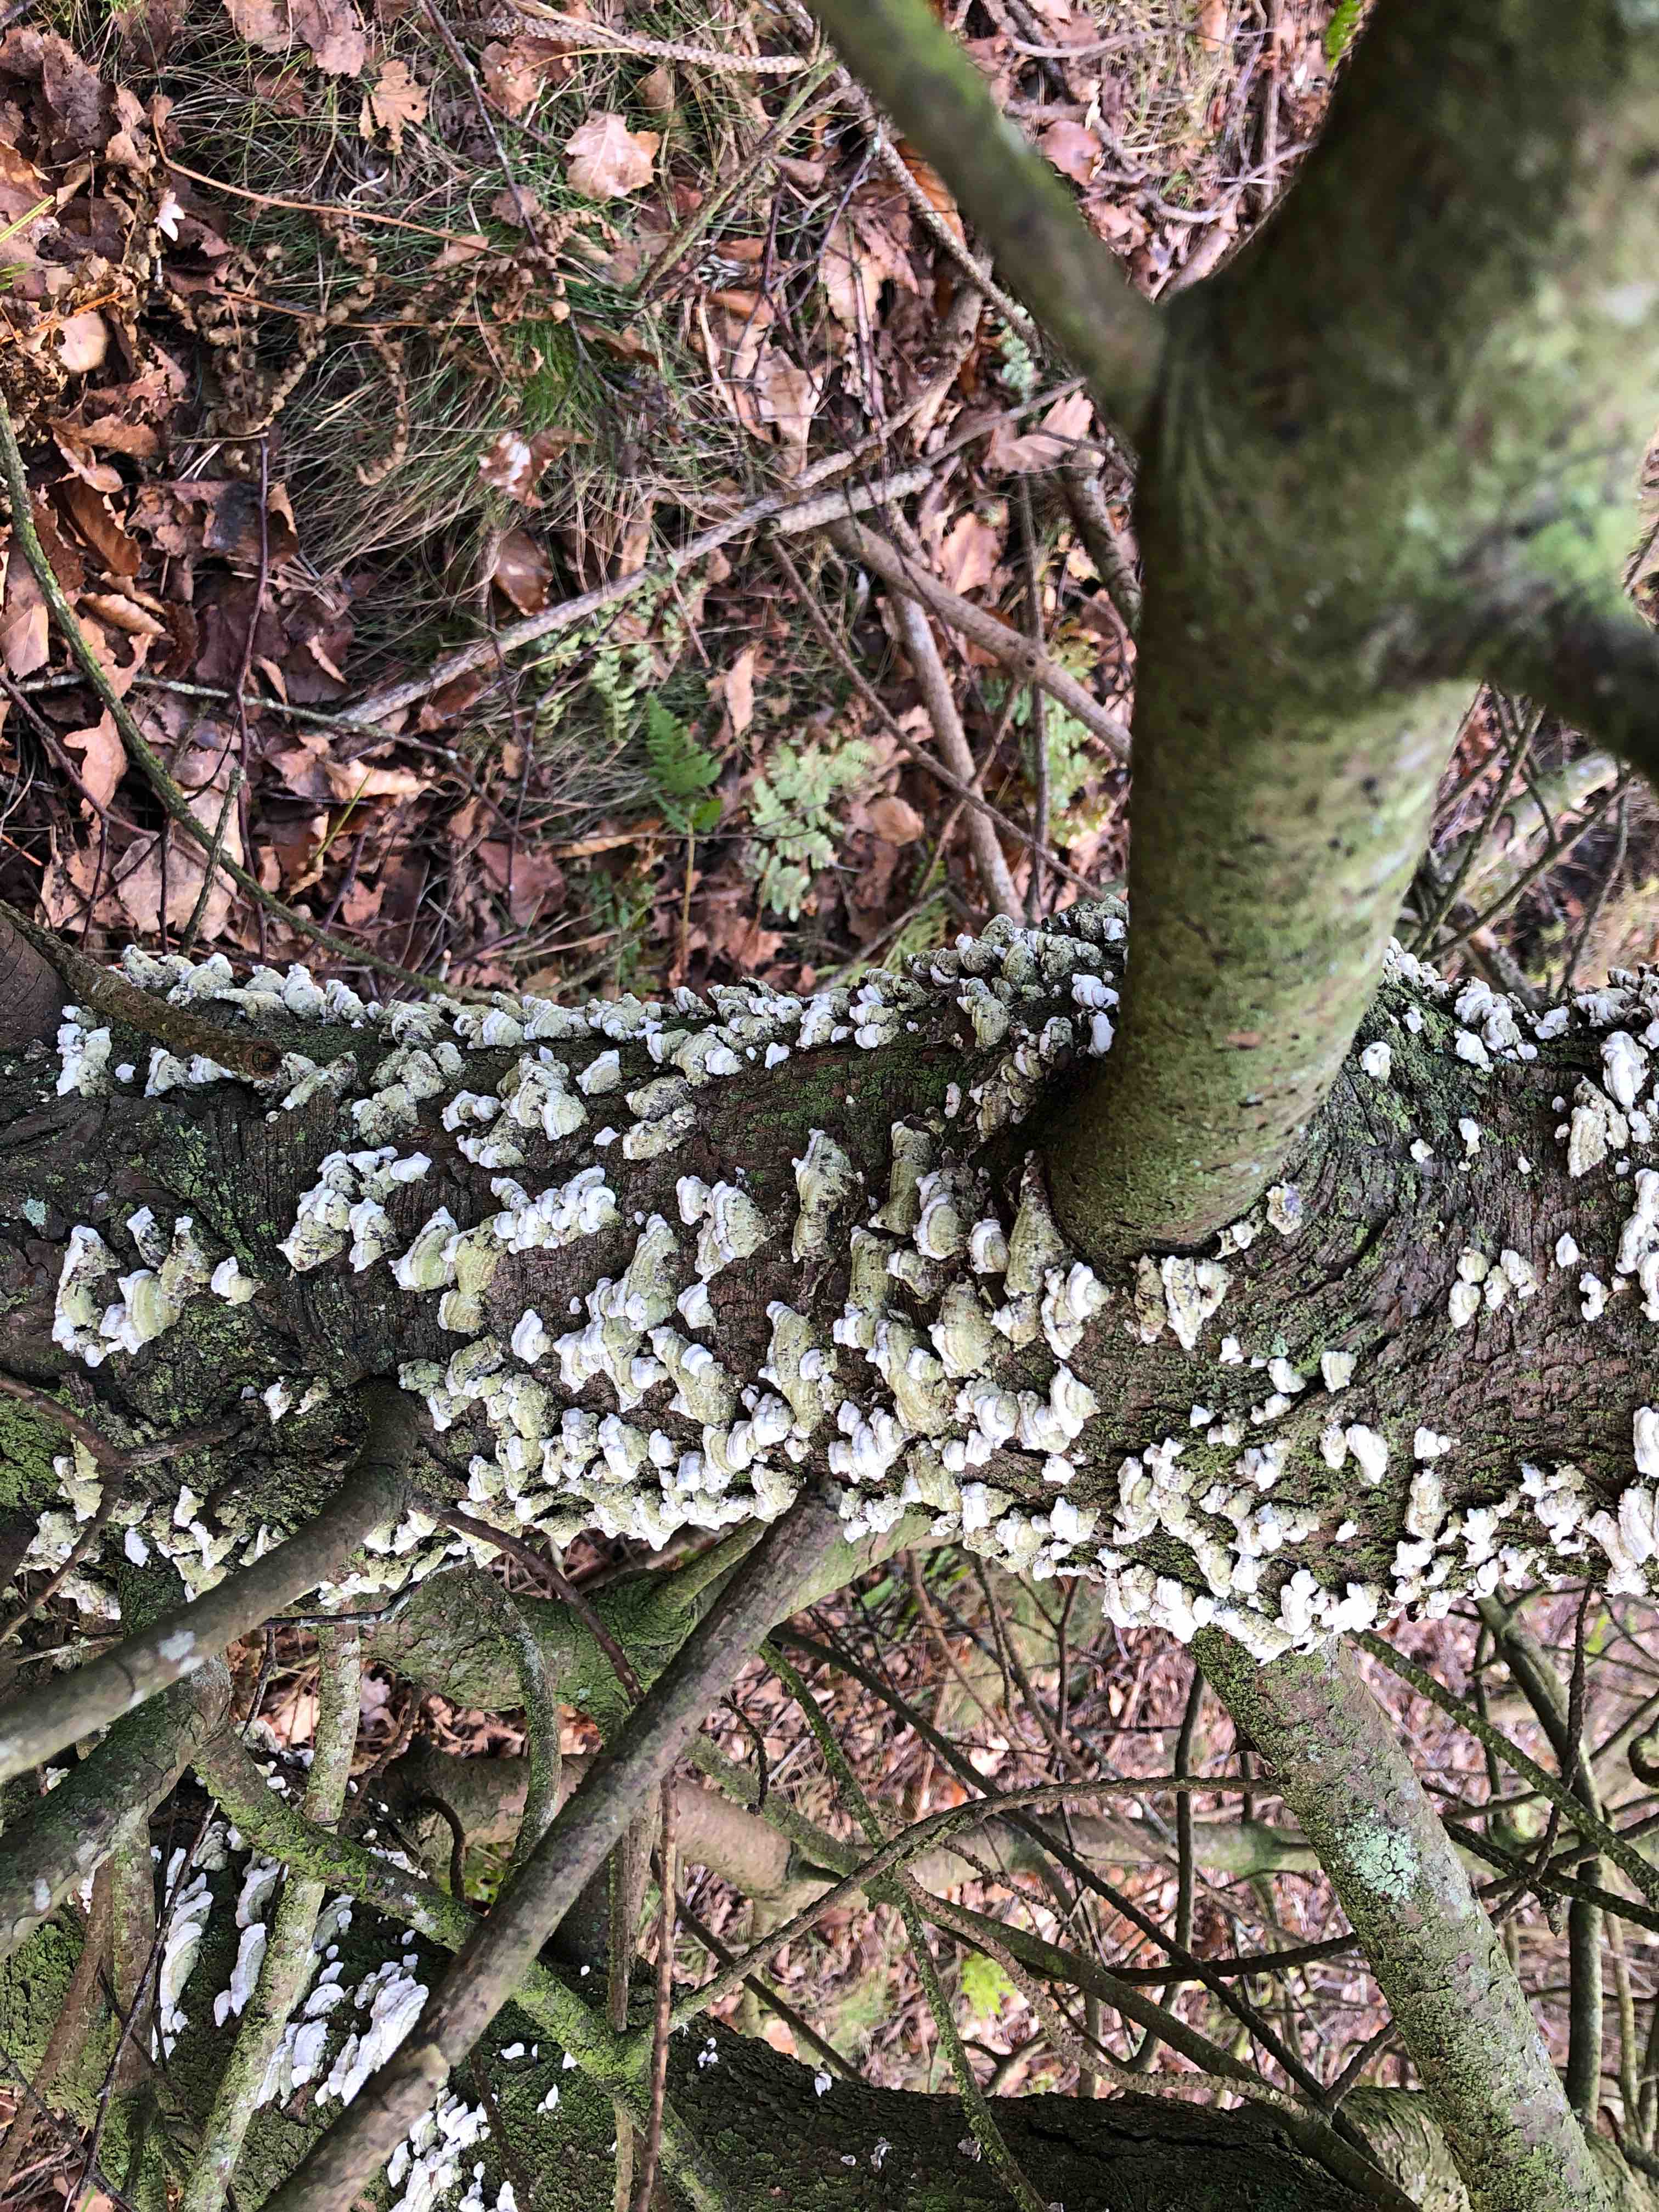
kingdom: Fungi
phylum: Basidiomycota
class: Agaricomycetes
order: Hymenochaetales
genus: Trichaptum
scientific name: Trichaptum abietinum
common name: almindelig violporesvamp
